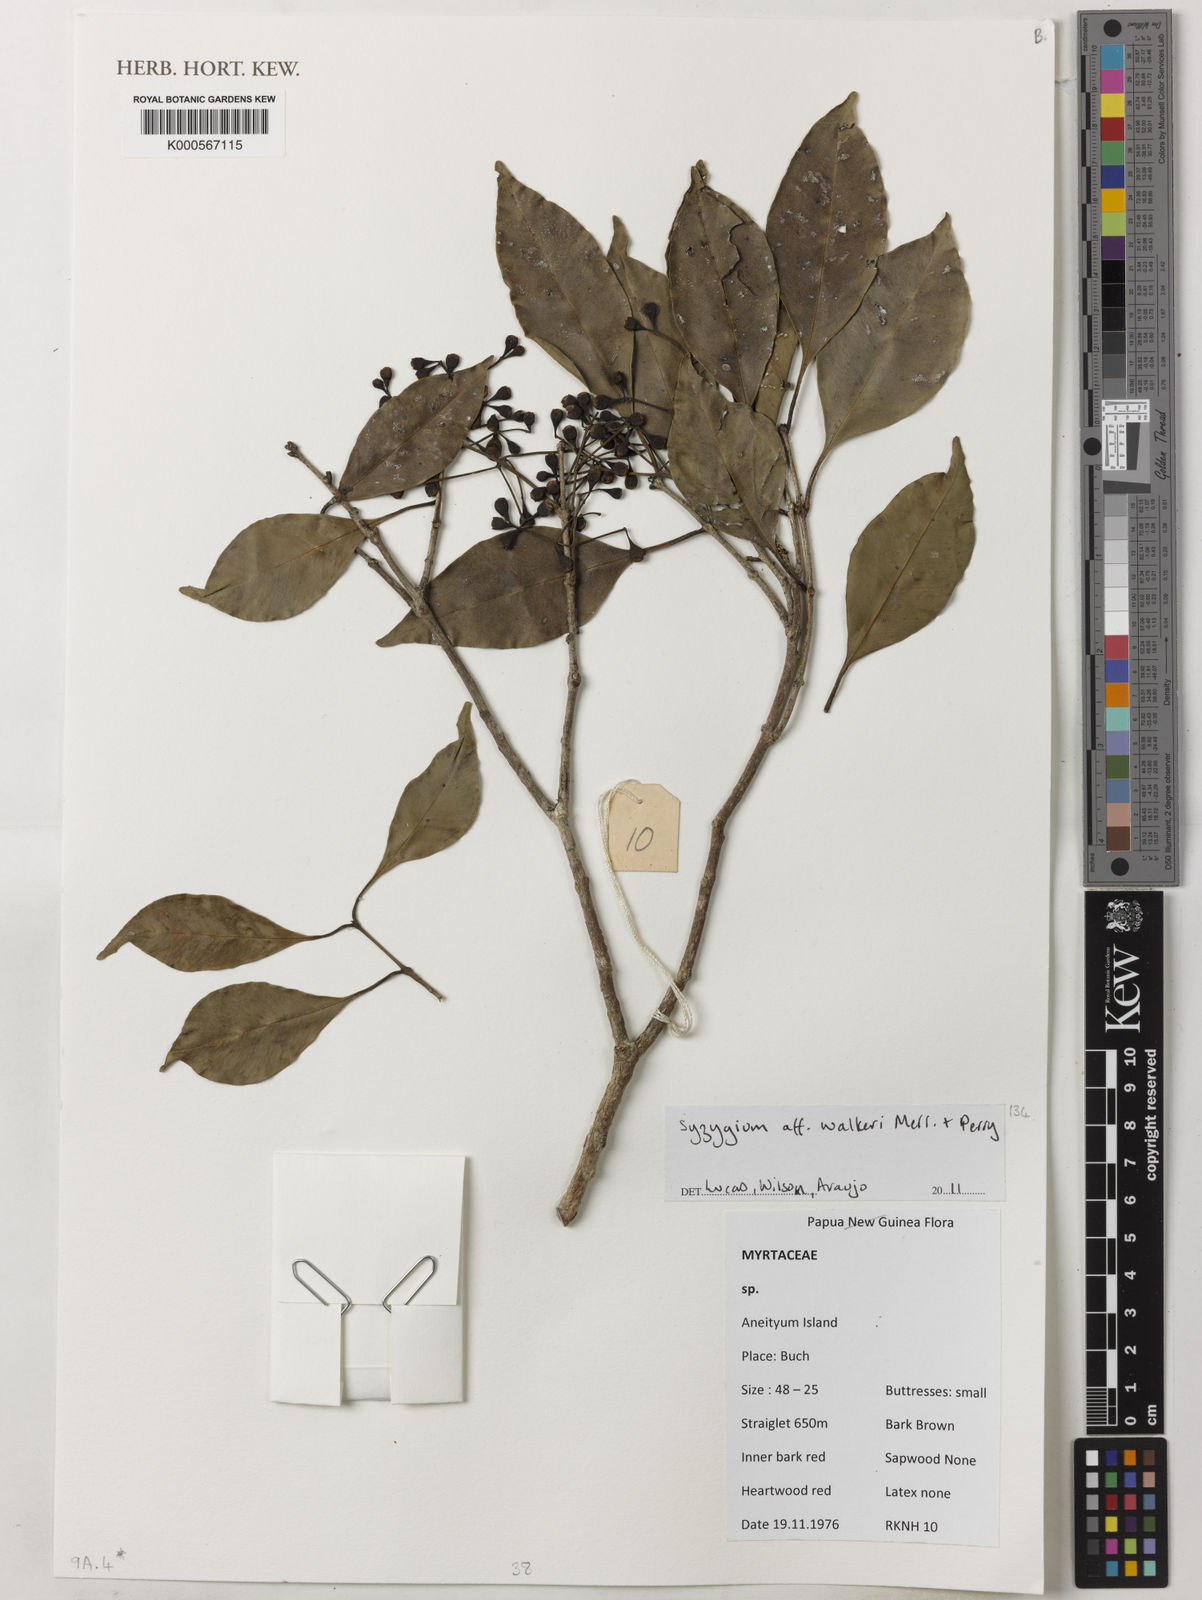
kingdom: Plantae
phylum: Tracheophyta
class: Magnoliopsida
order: Myrtales
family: Myrtaceae
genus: Syzygium
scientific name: Syzygium
